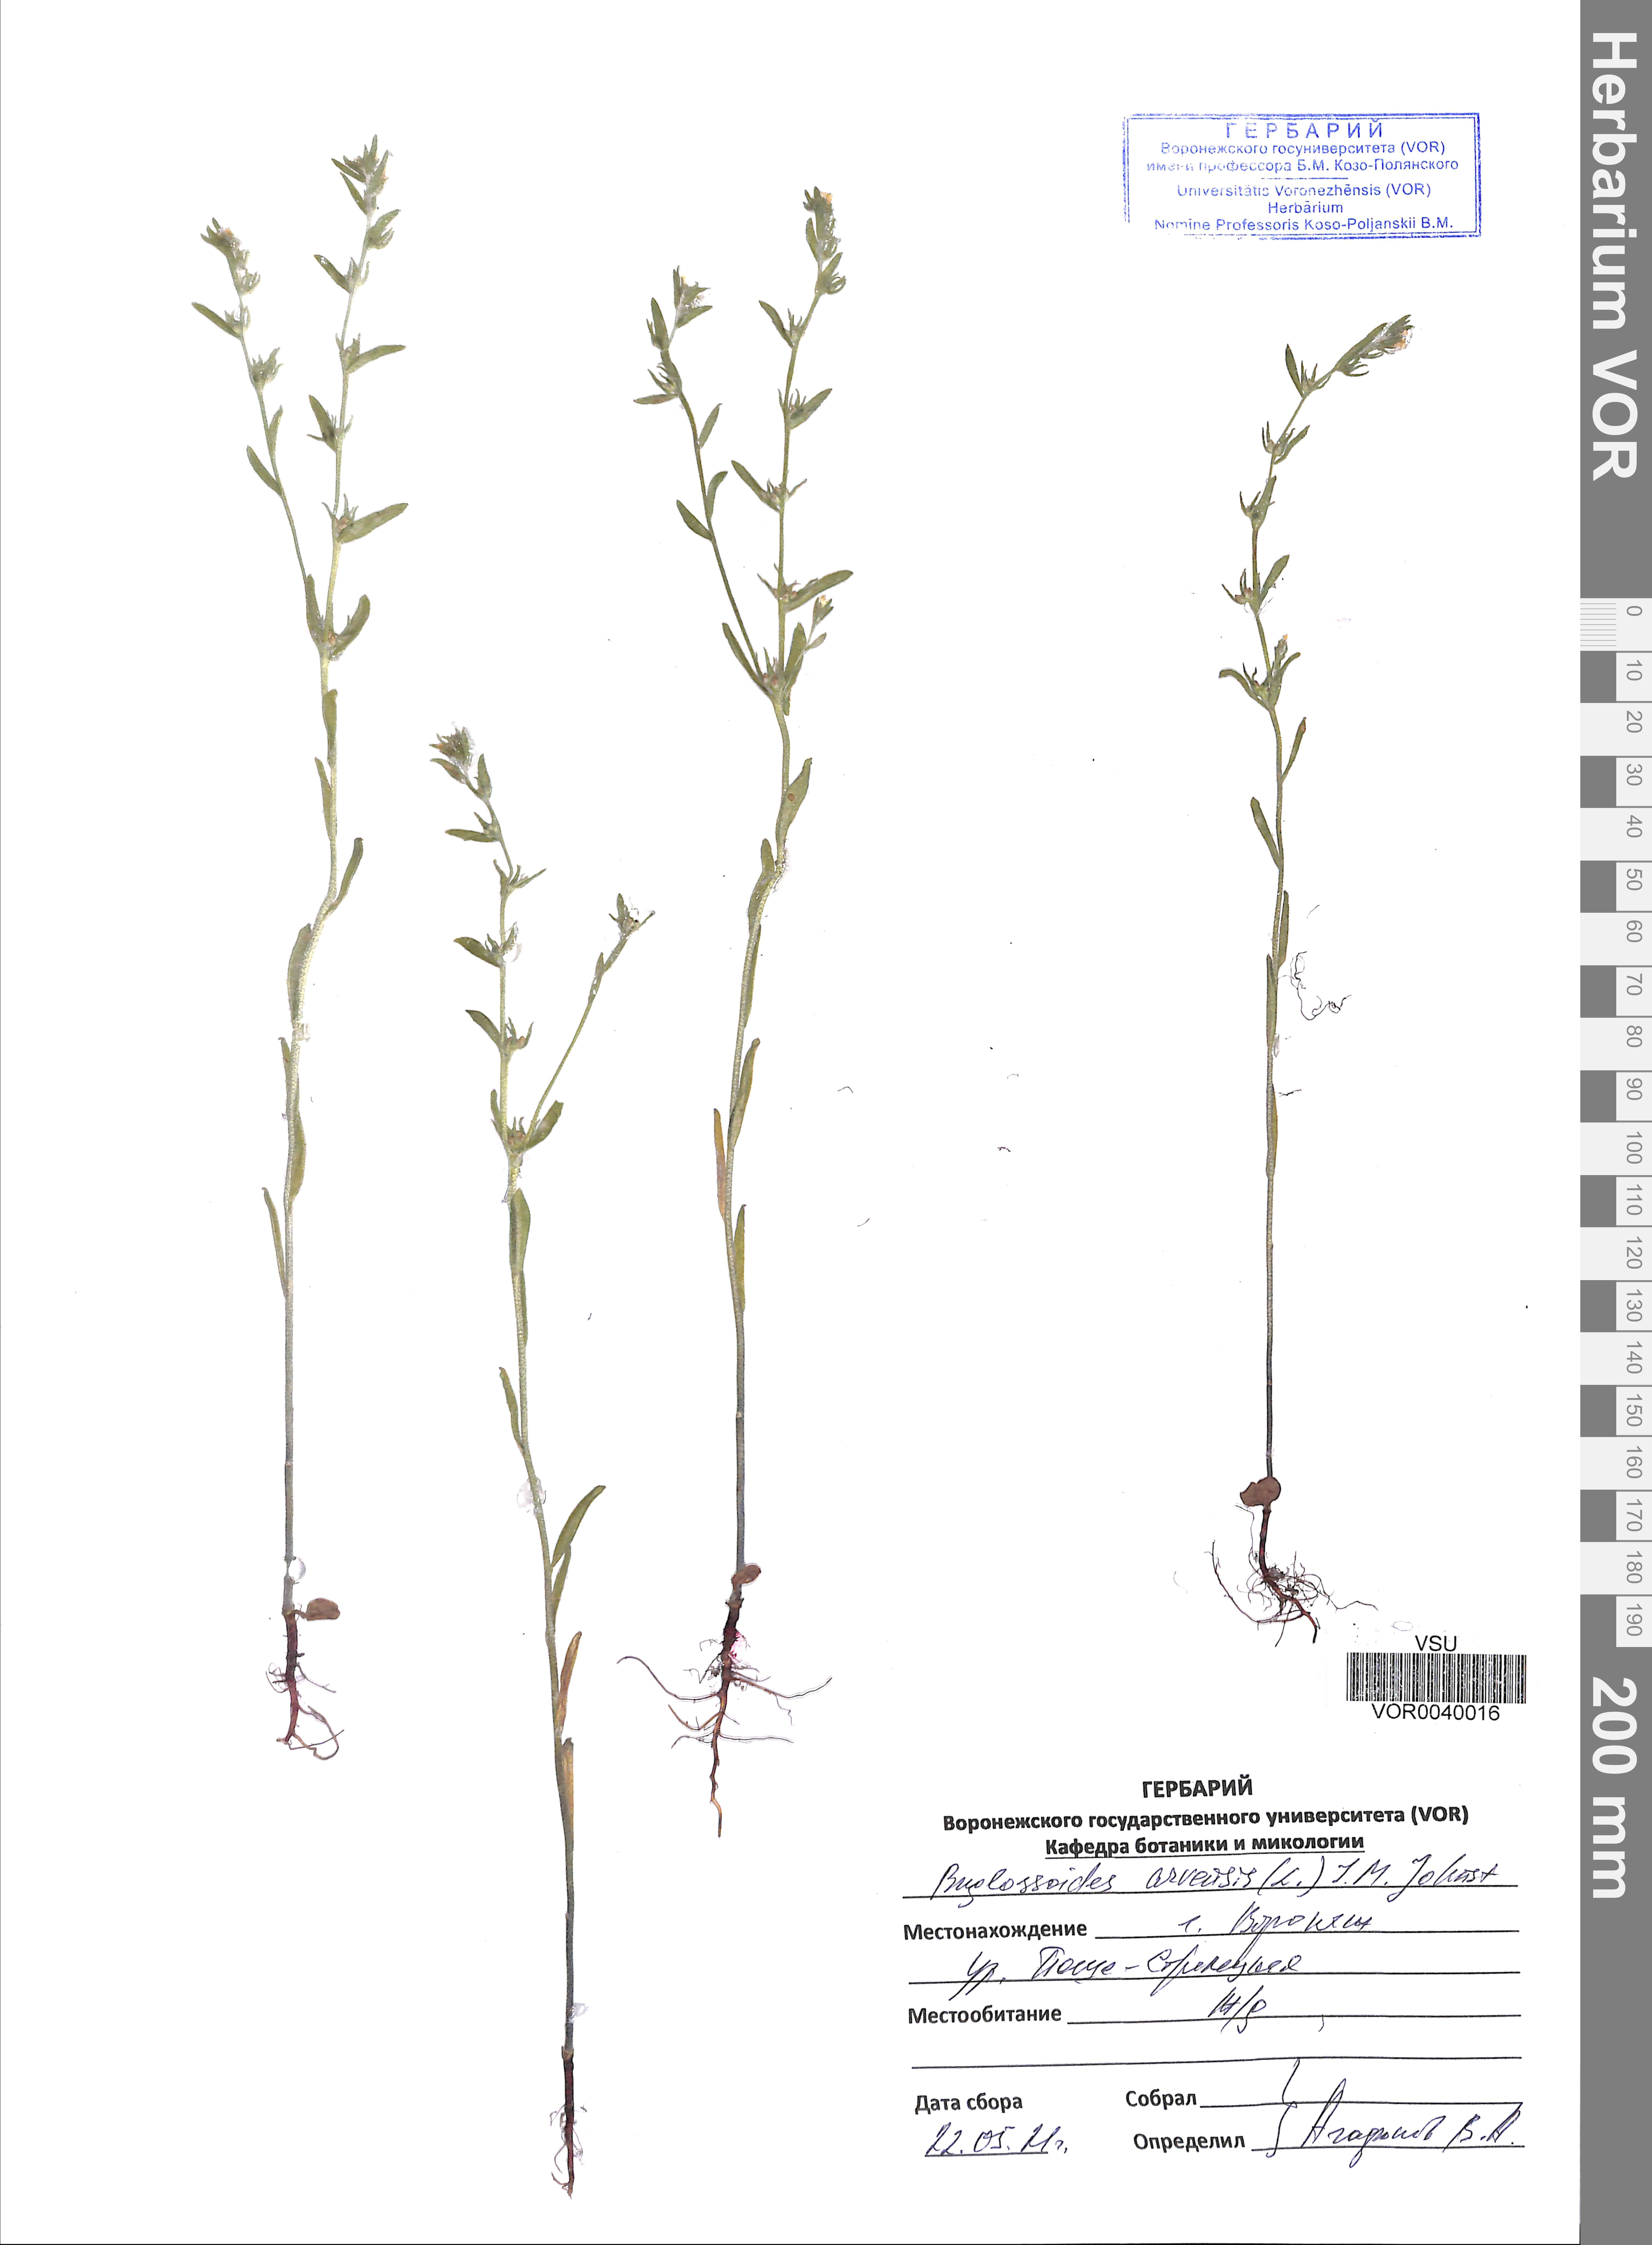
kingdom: Plantae
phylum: Tracheophyta
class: Magnoliopsida
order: Boraginales
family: Boraginaceae
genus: Buglossoides
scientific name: Buglossoides arvensis
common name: Corn gromwell
